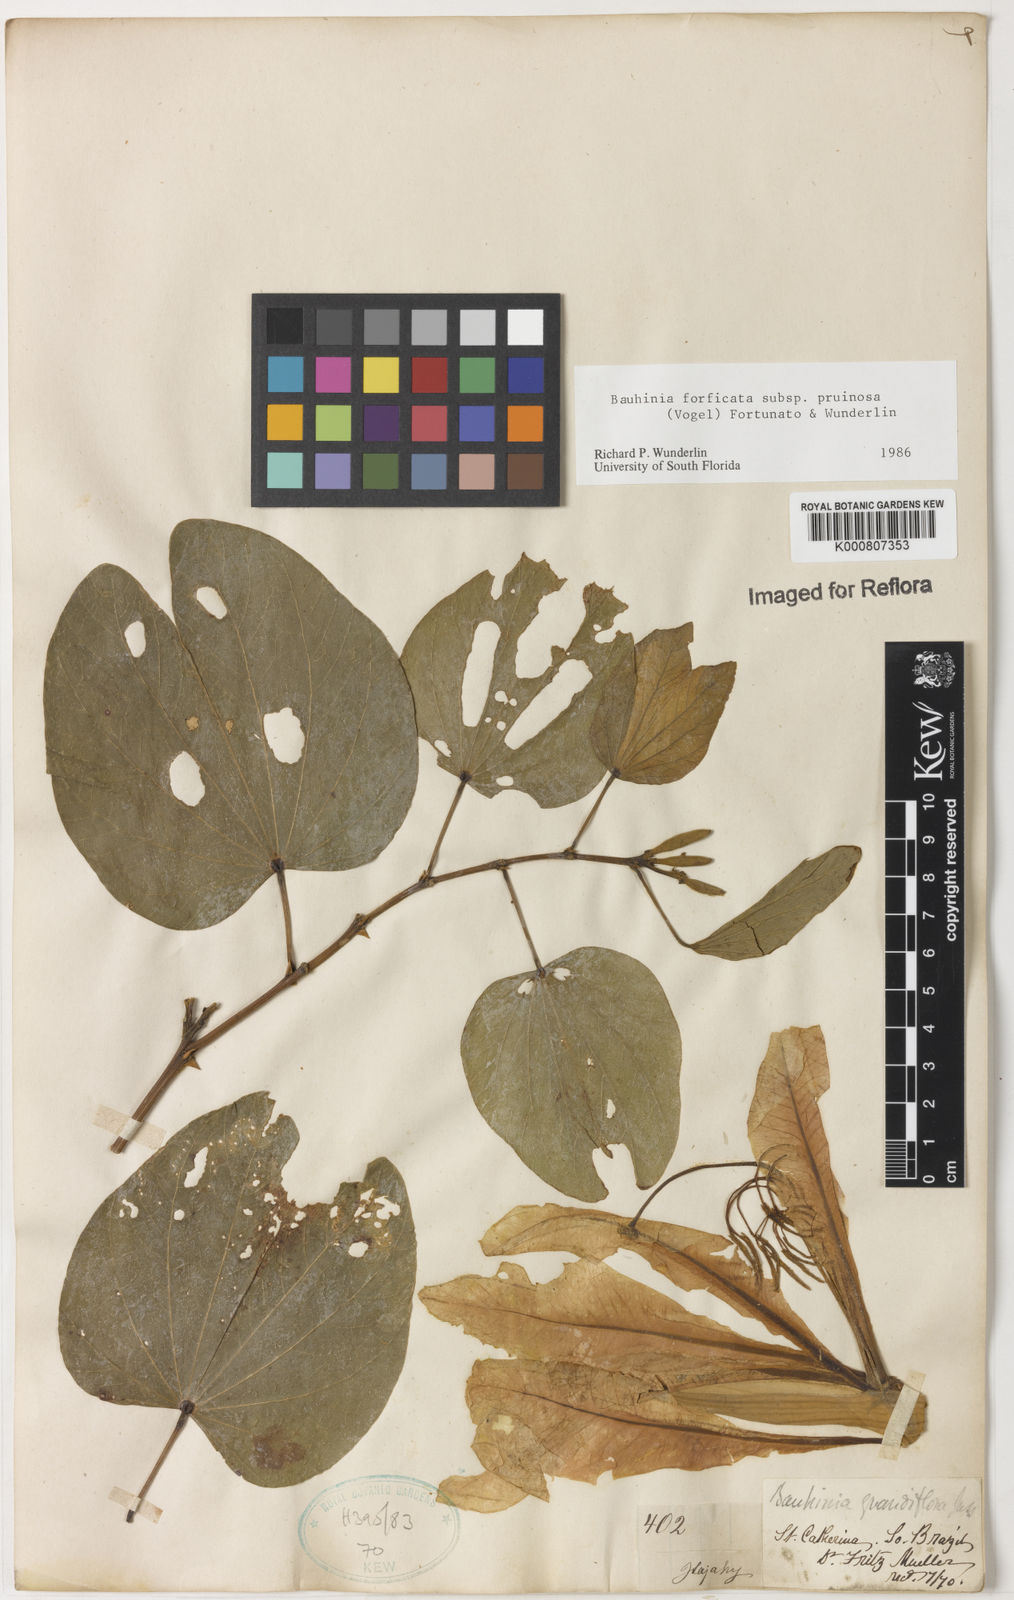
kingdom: Plantae
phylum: Tracheophyta
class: Magnoliopsida
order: Fabales
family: Fabaceae
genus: Bauhinia
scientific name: Bauhinia forficata
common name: Orchid tree
